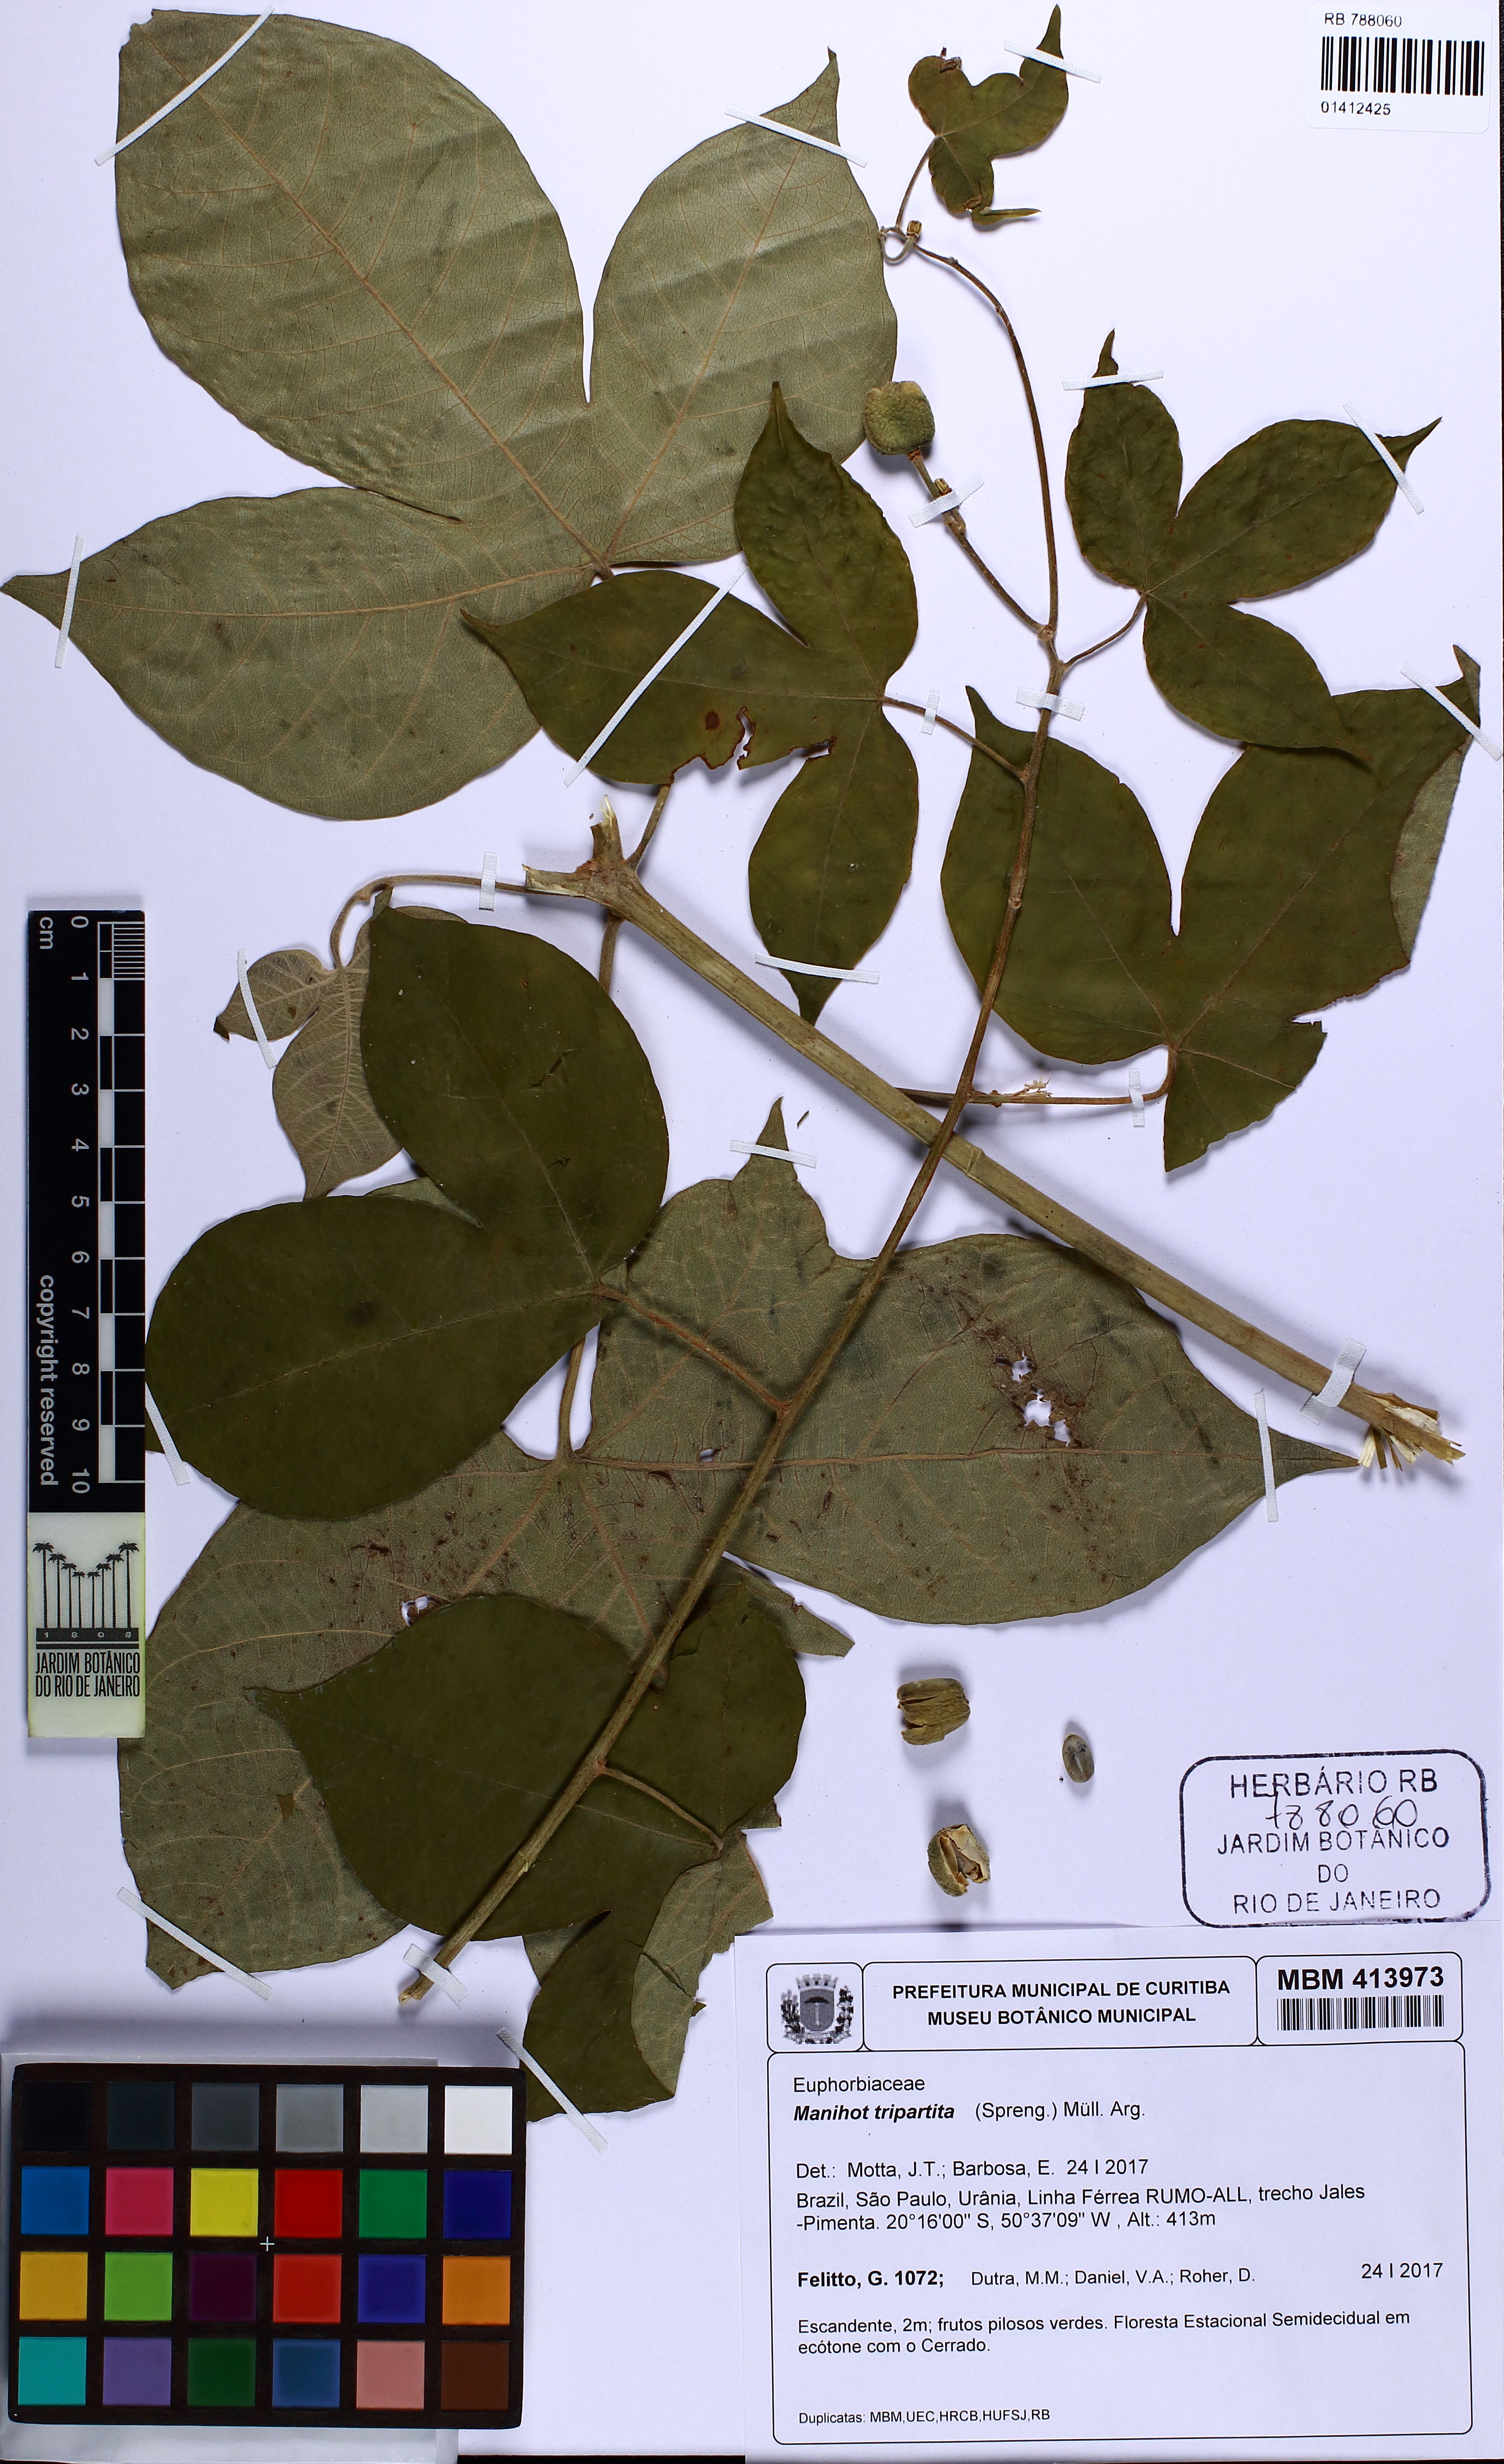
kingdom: Plantae
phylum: Tracheophyta
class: Magnoliopsida
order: Malpighiales
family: Euphorbiaceae
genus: Manihot
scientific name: Manihot tripartita
